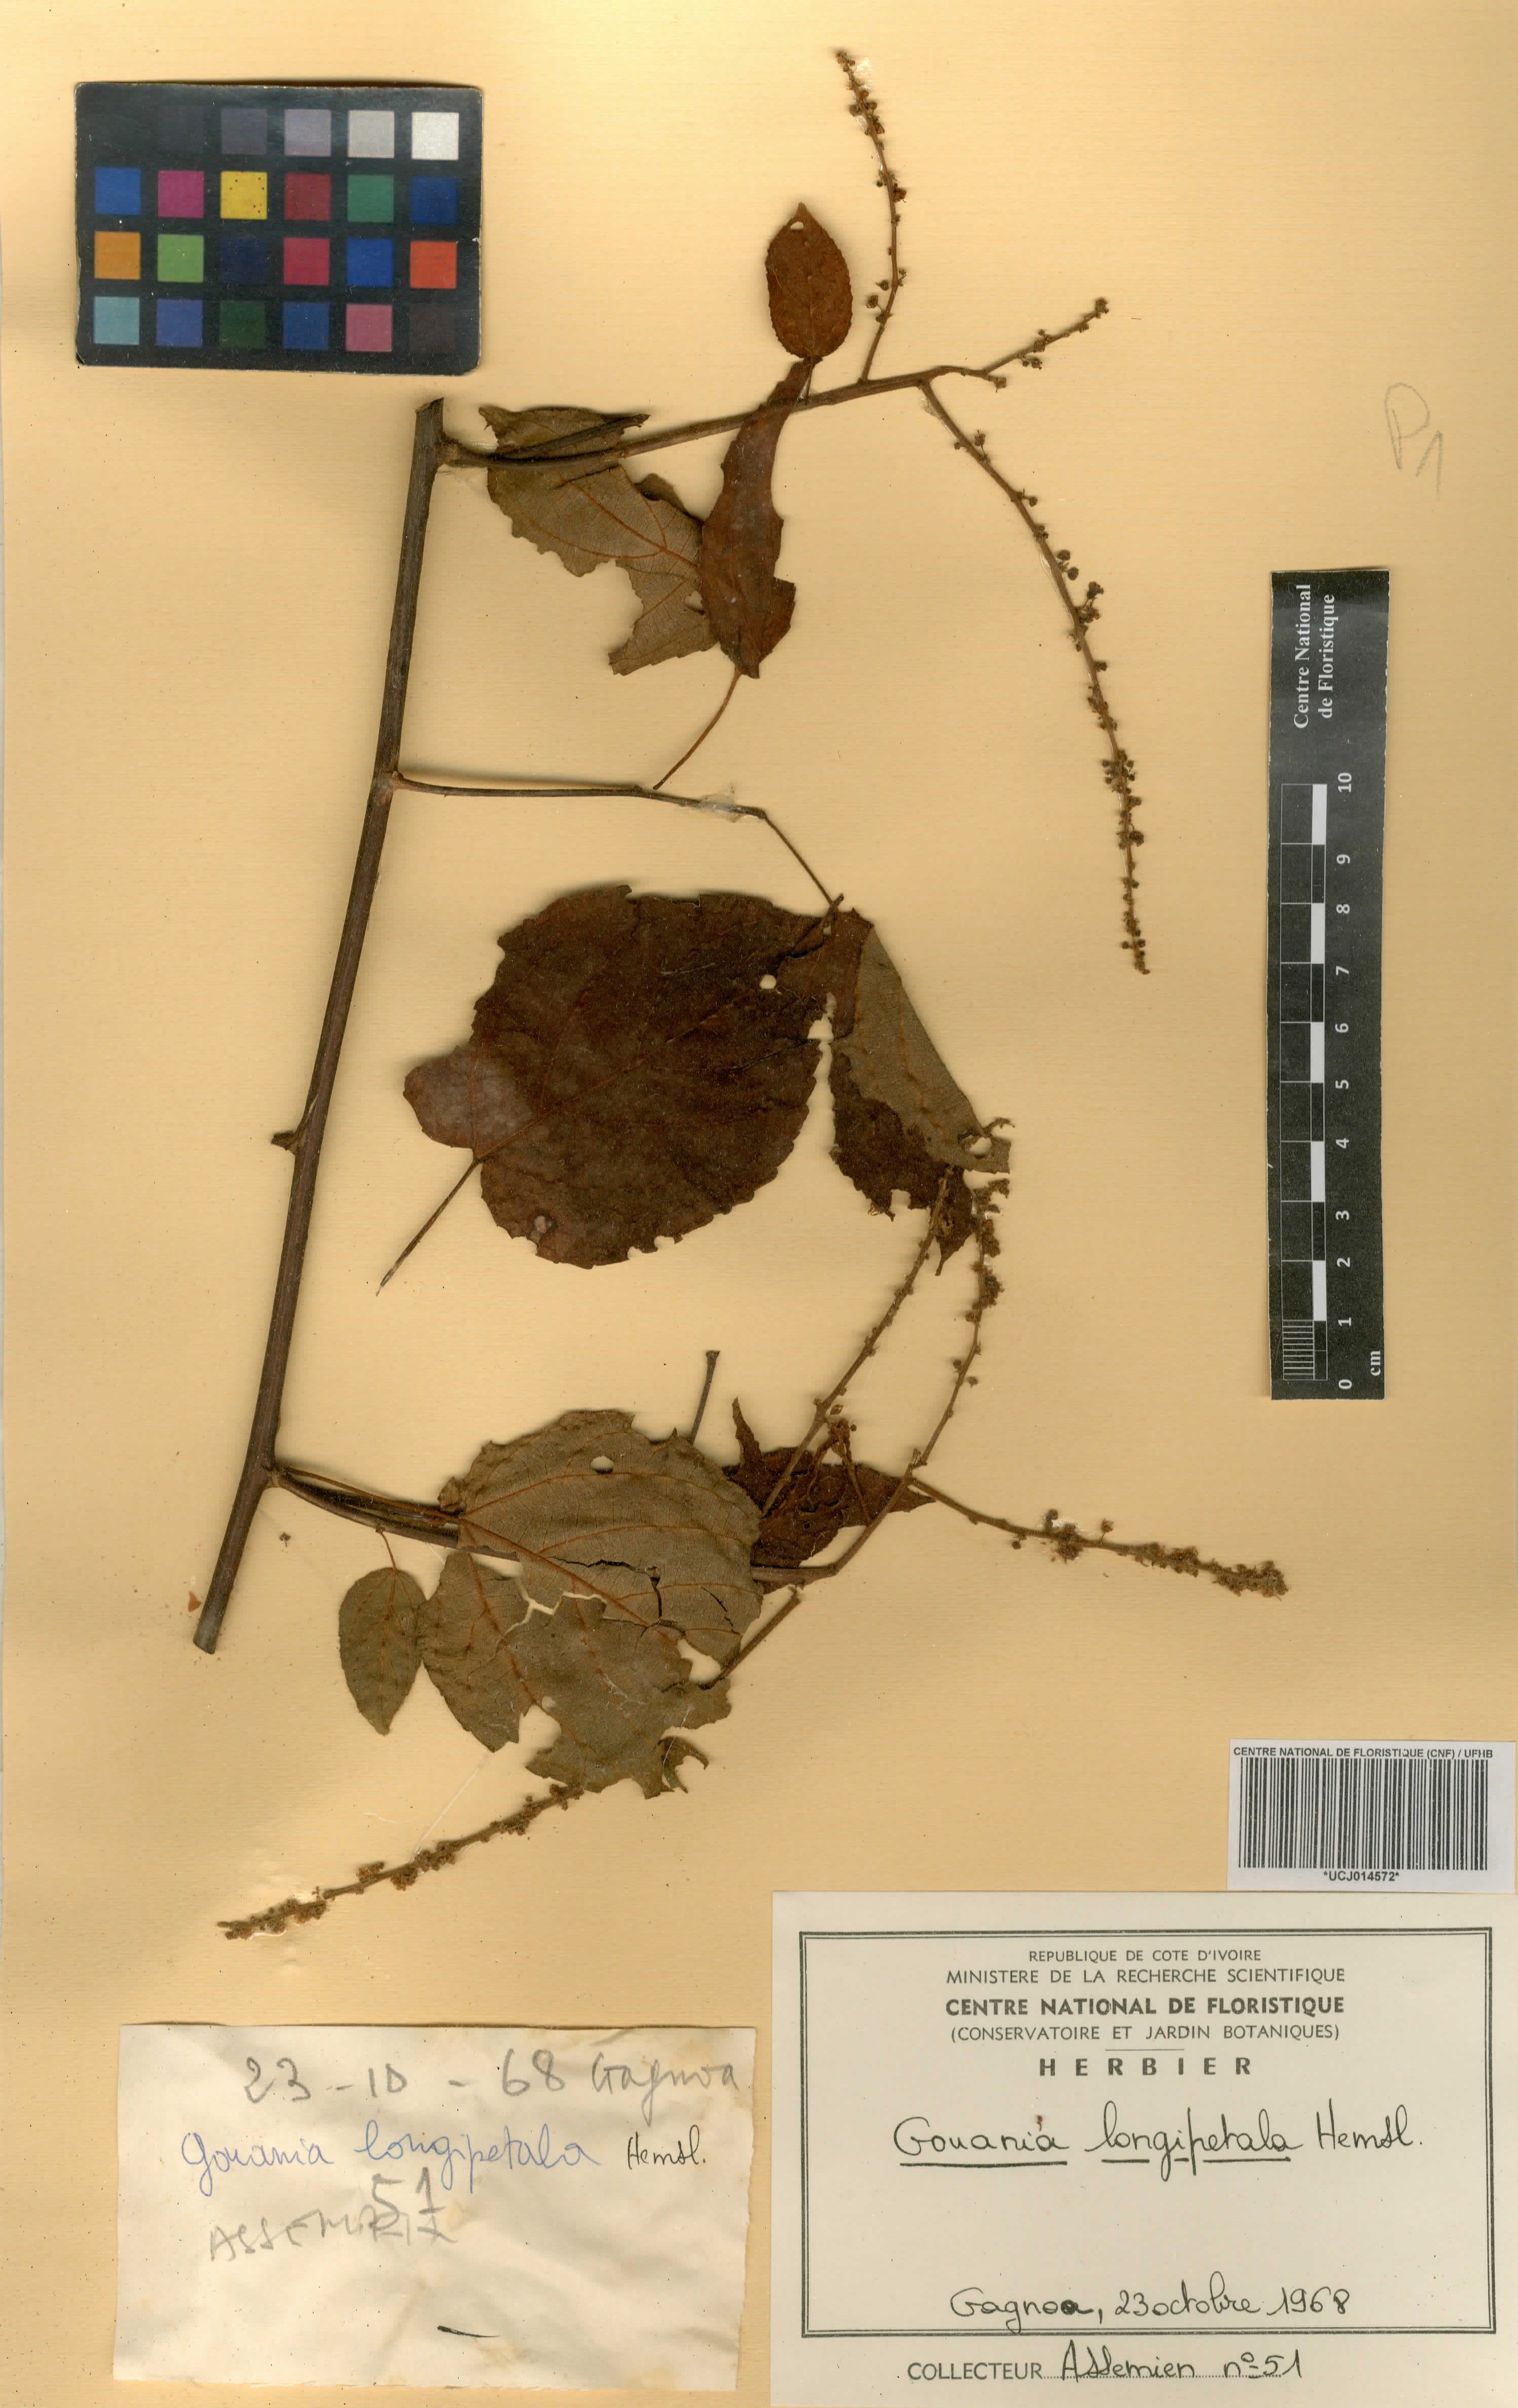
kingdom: Plantae
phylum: Tracheophyta
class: Magnoliopsida
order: Rosales
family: Rhamnaceae
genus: Gouania
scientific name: Gouania longipetala
